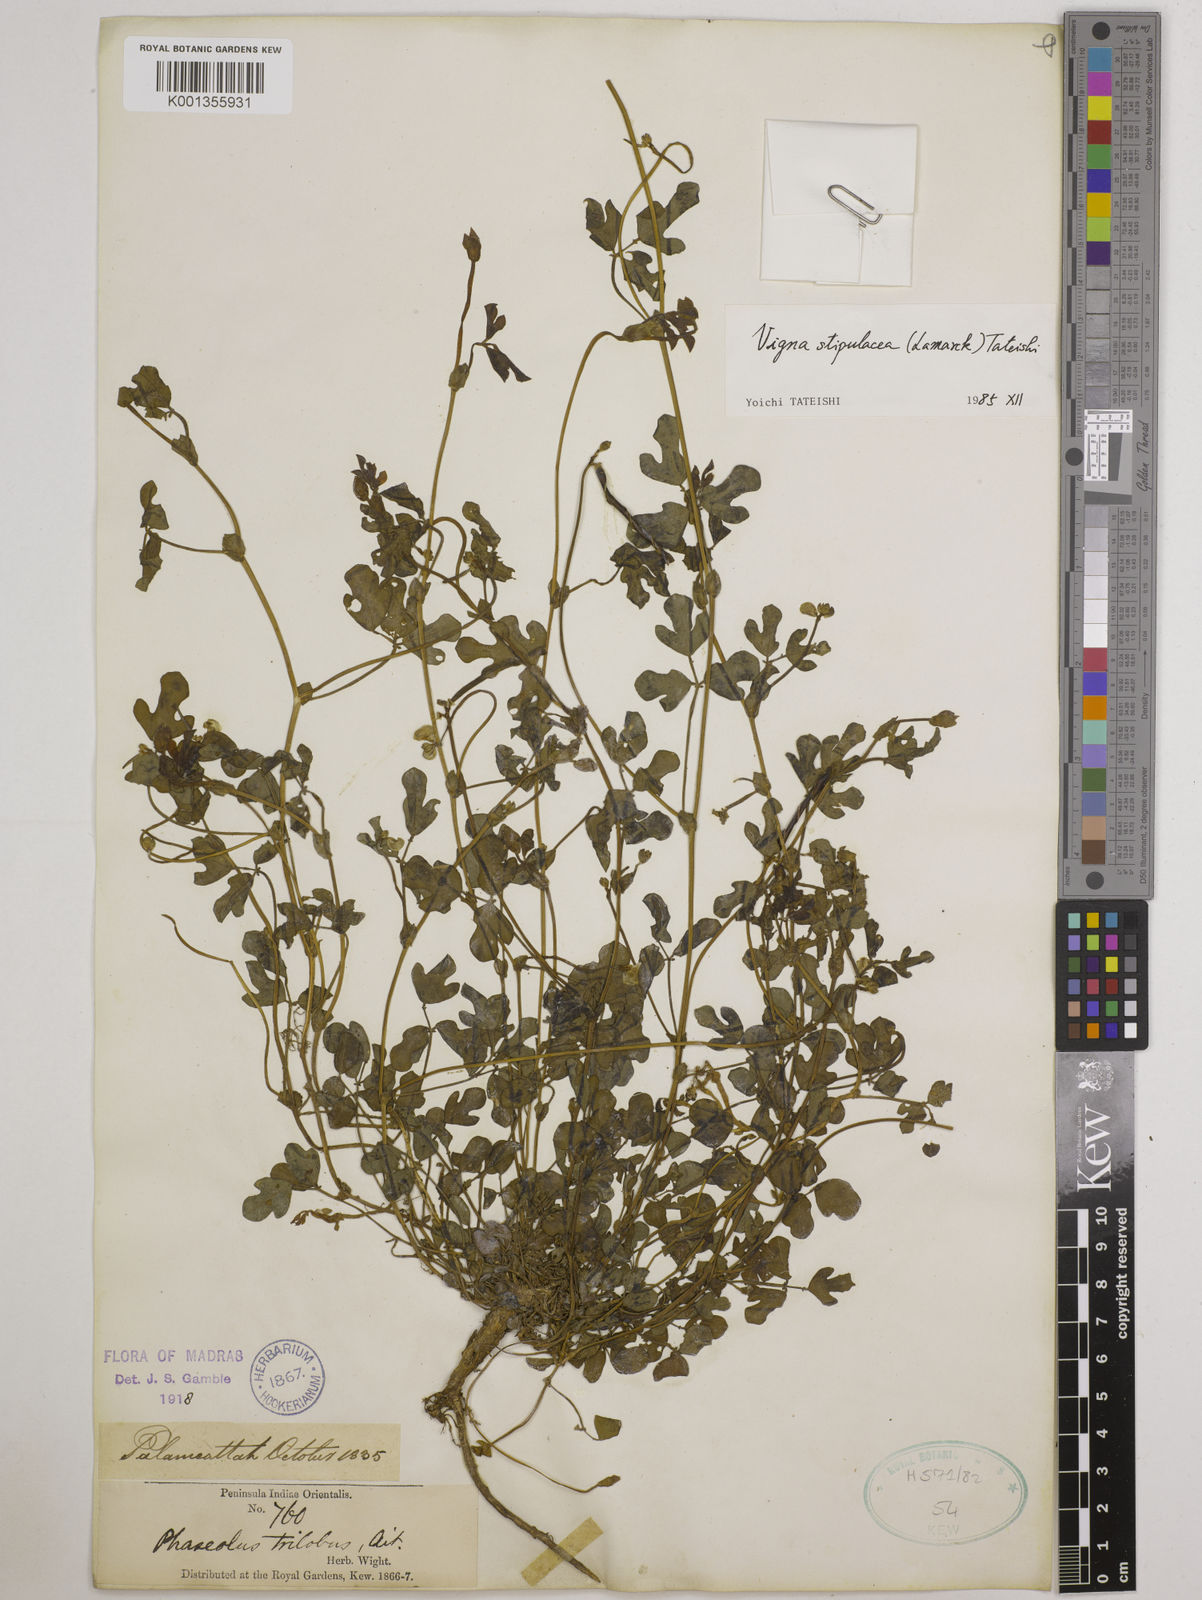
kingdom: Plantae
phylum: Tracheophyta
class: Magnoliopsida
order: Fabales
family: Fabaceae
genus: Pueraria
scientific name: Pueraria montana
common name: Kudzu
